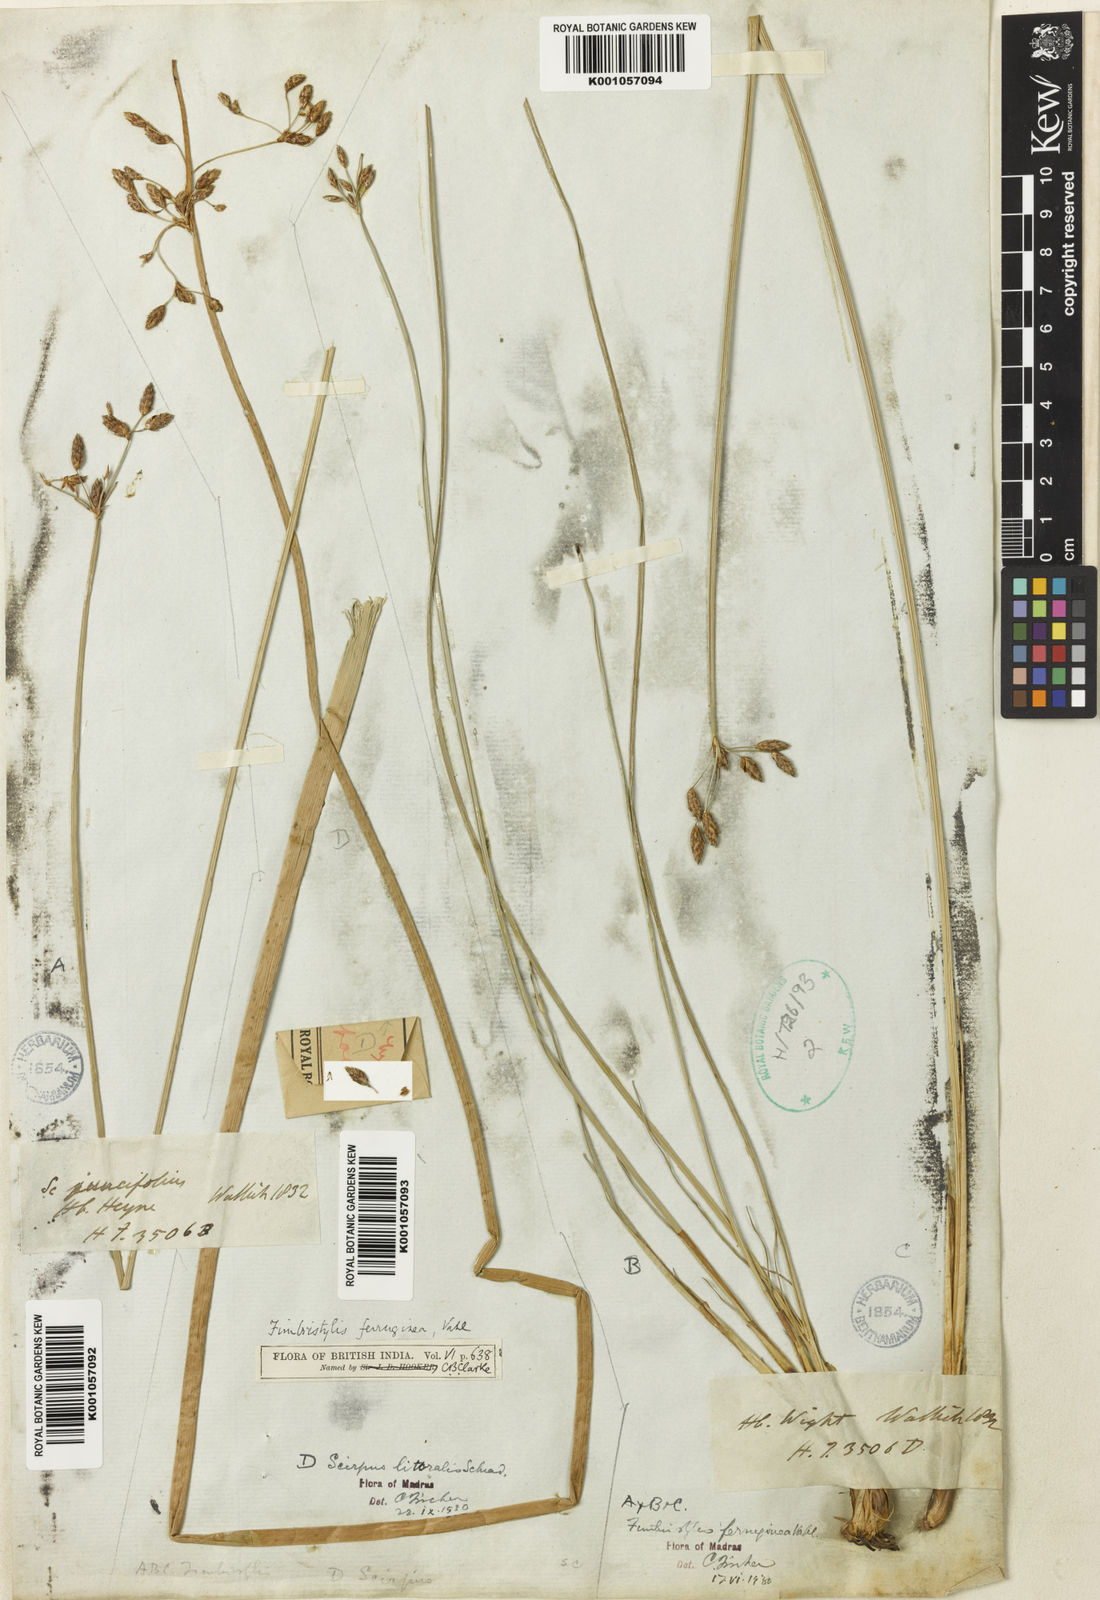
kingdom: Plantae
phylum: Tracheophyta
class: Liliopsida
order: Poales
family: Cyperaceae
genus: Schoenoplectus
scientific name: Schoenoplectus litoralis
